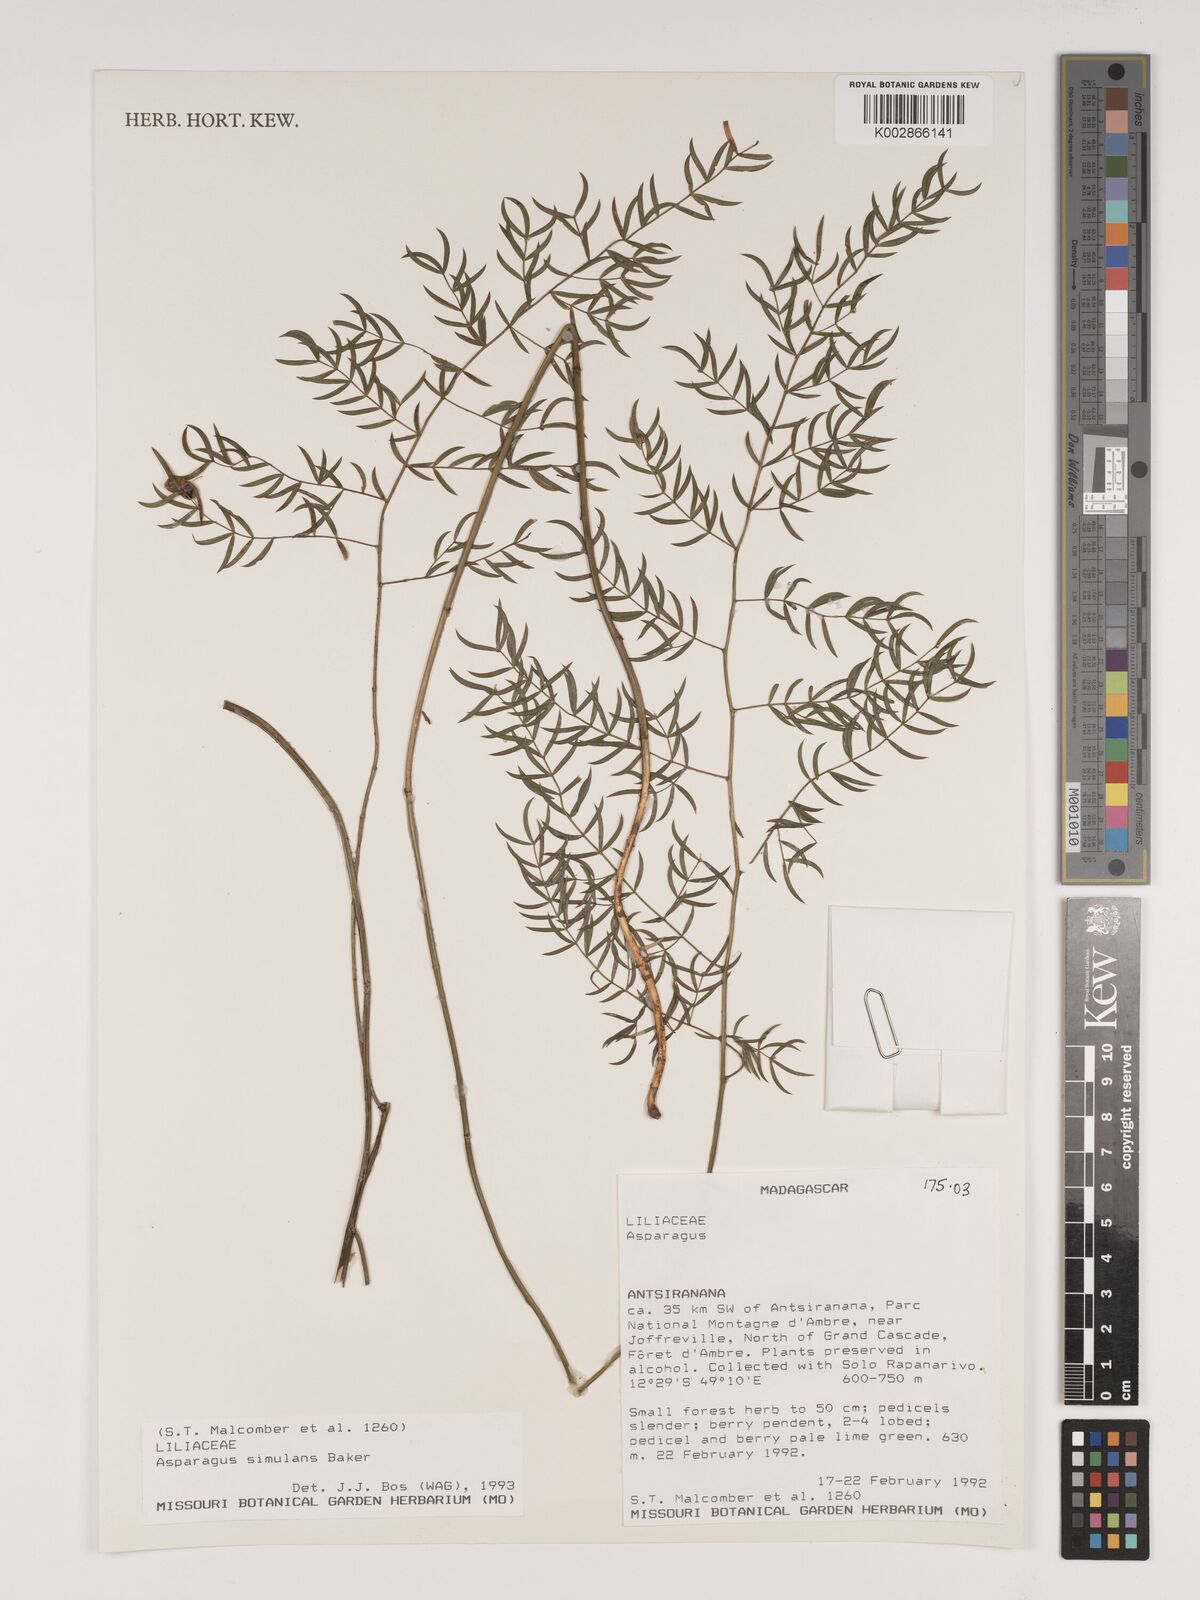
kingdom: Plantae
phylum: Tracheophyta
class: Liliopsida
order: Asparagales
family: Asparagaceae
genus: Asparagus
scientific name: Asparagus simulans
